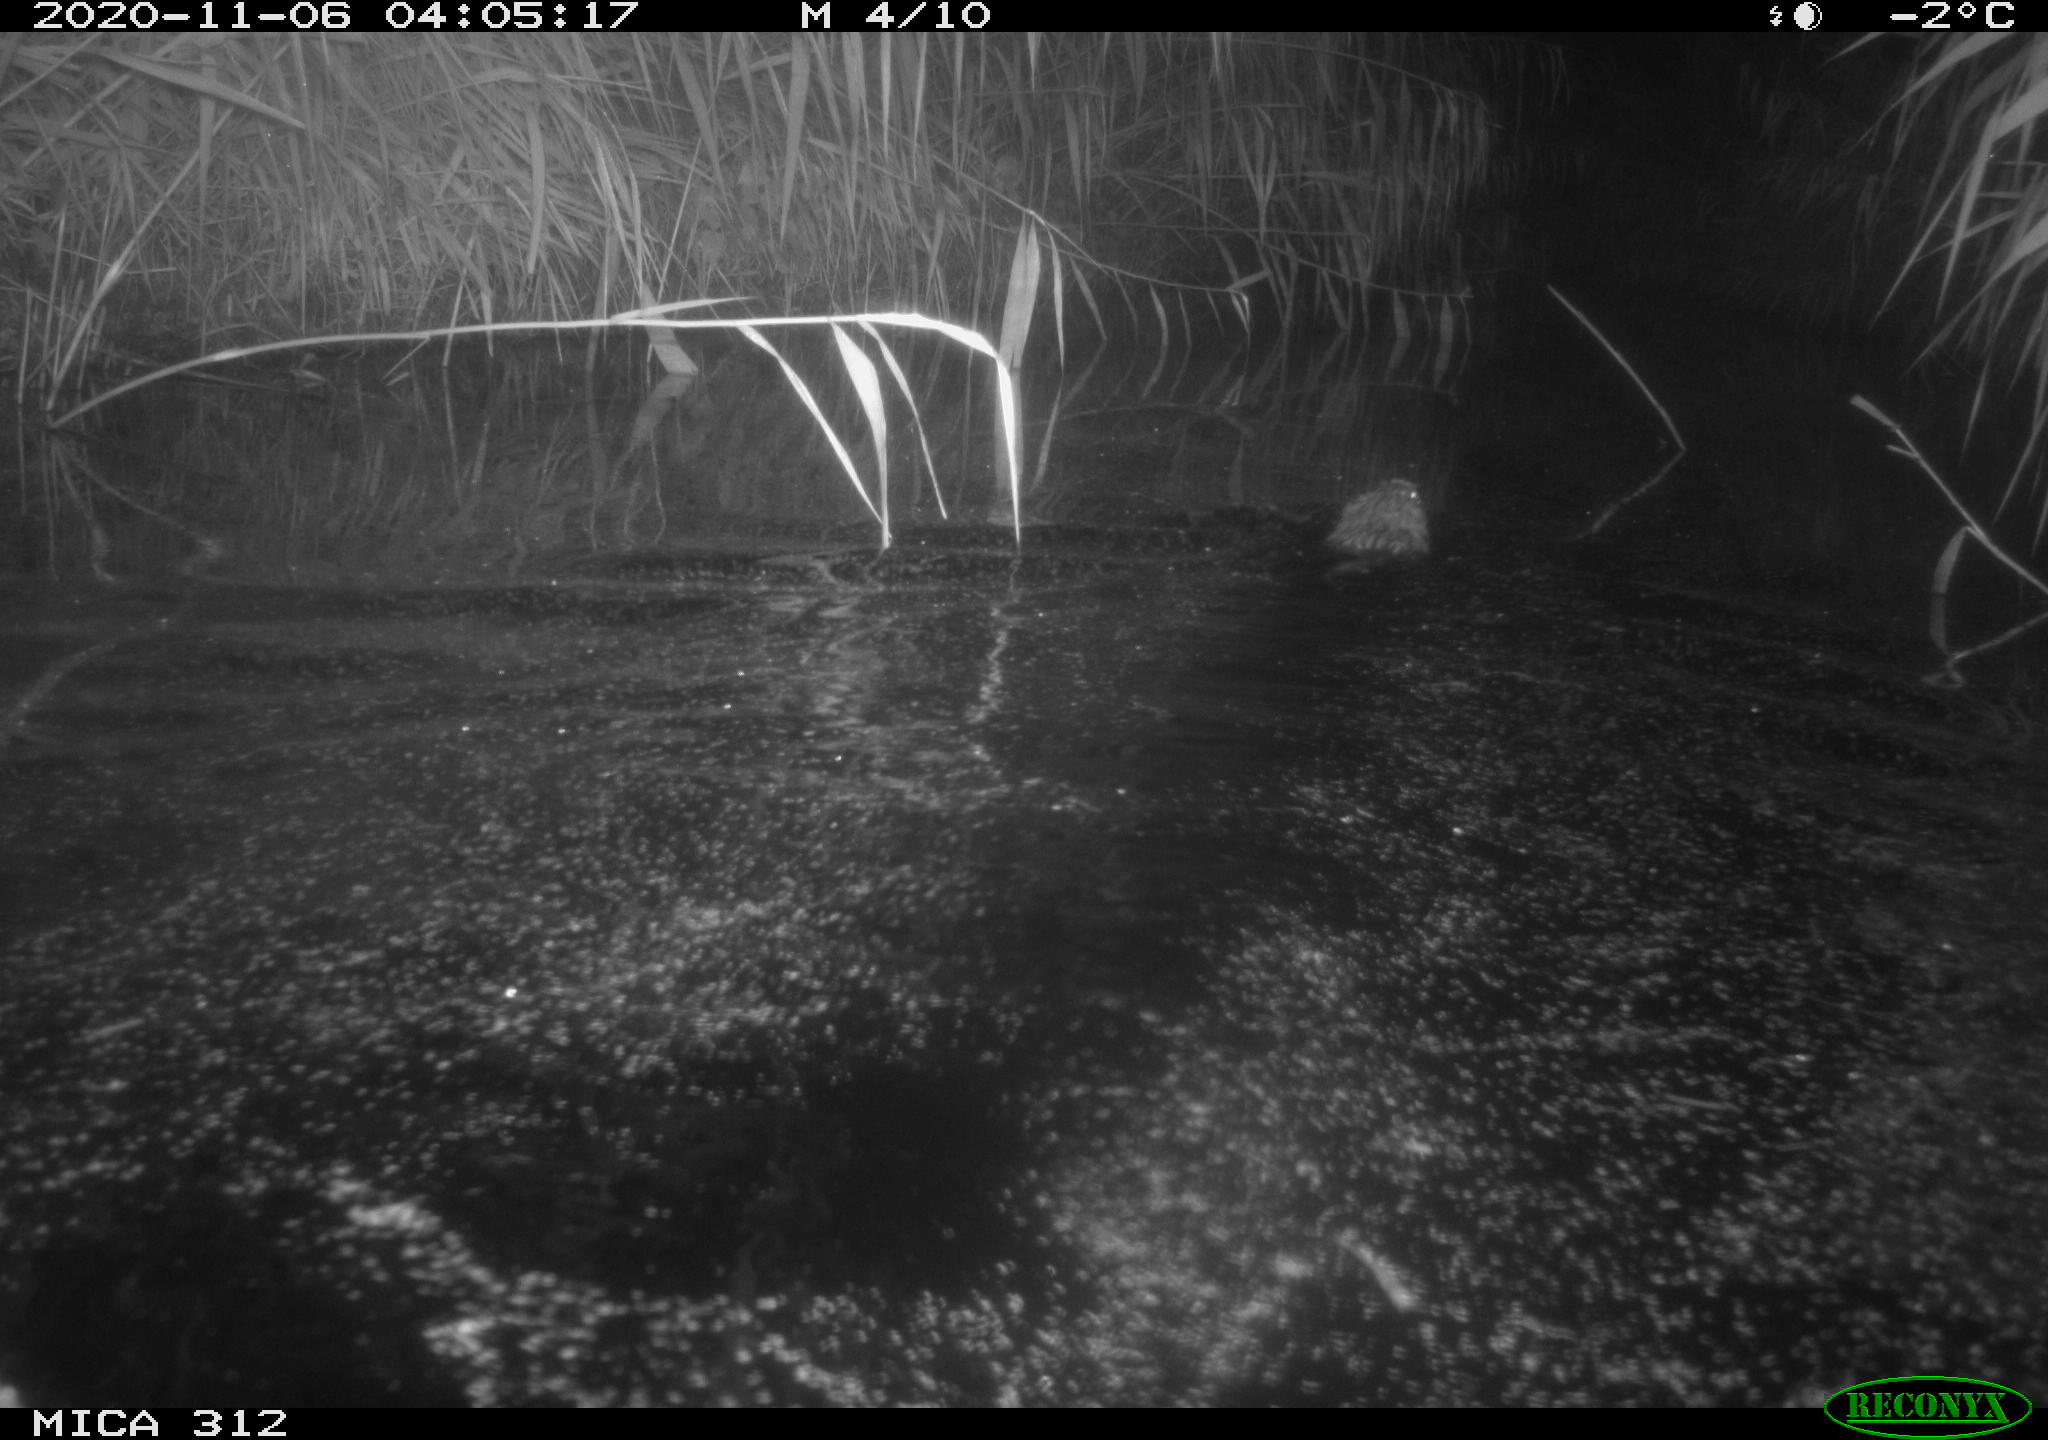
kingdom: Animalia
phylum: Chordata
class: Mammalia
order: Rodentia
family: Cricetidae
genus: Ondatra
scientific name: Ondatra zibethicus
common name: Muskrat
